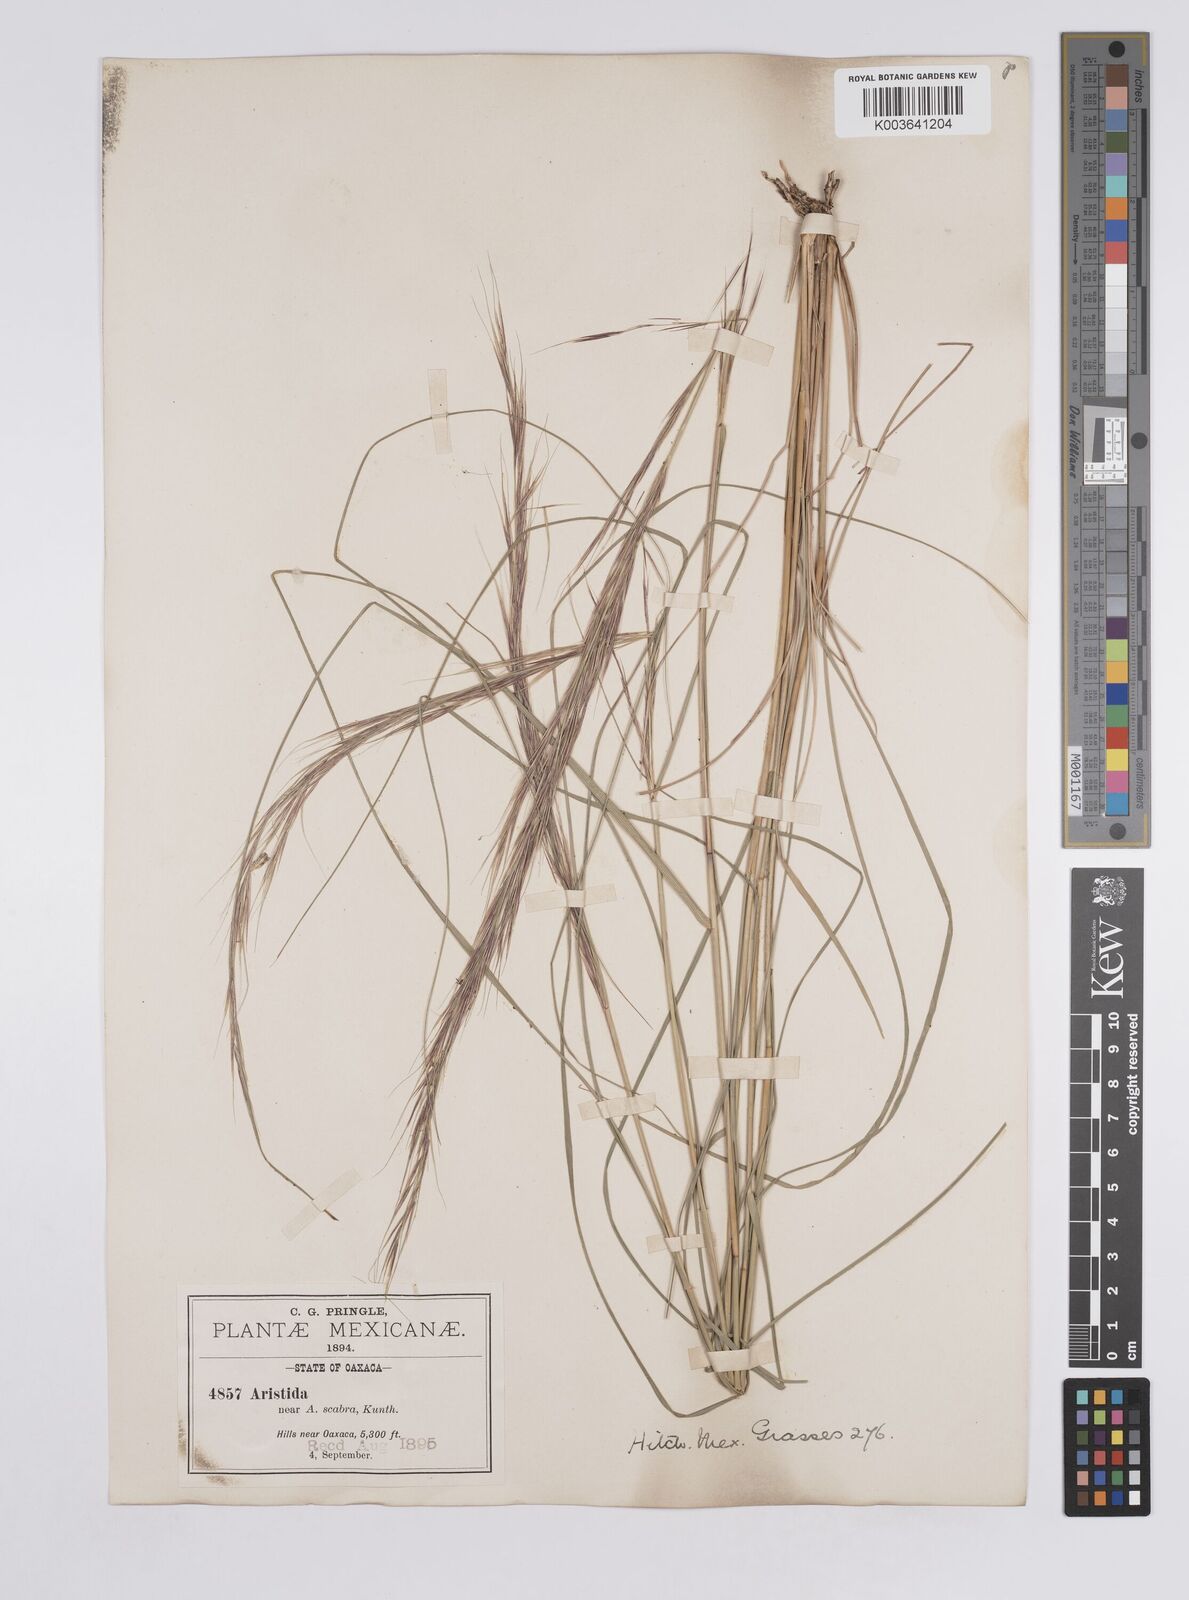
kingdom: Plantae
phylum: Tracheophyta
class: Liliopsida
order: Poales
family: Poaceae
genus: Aristida
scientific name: Aristida ternipes
